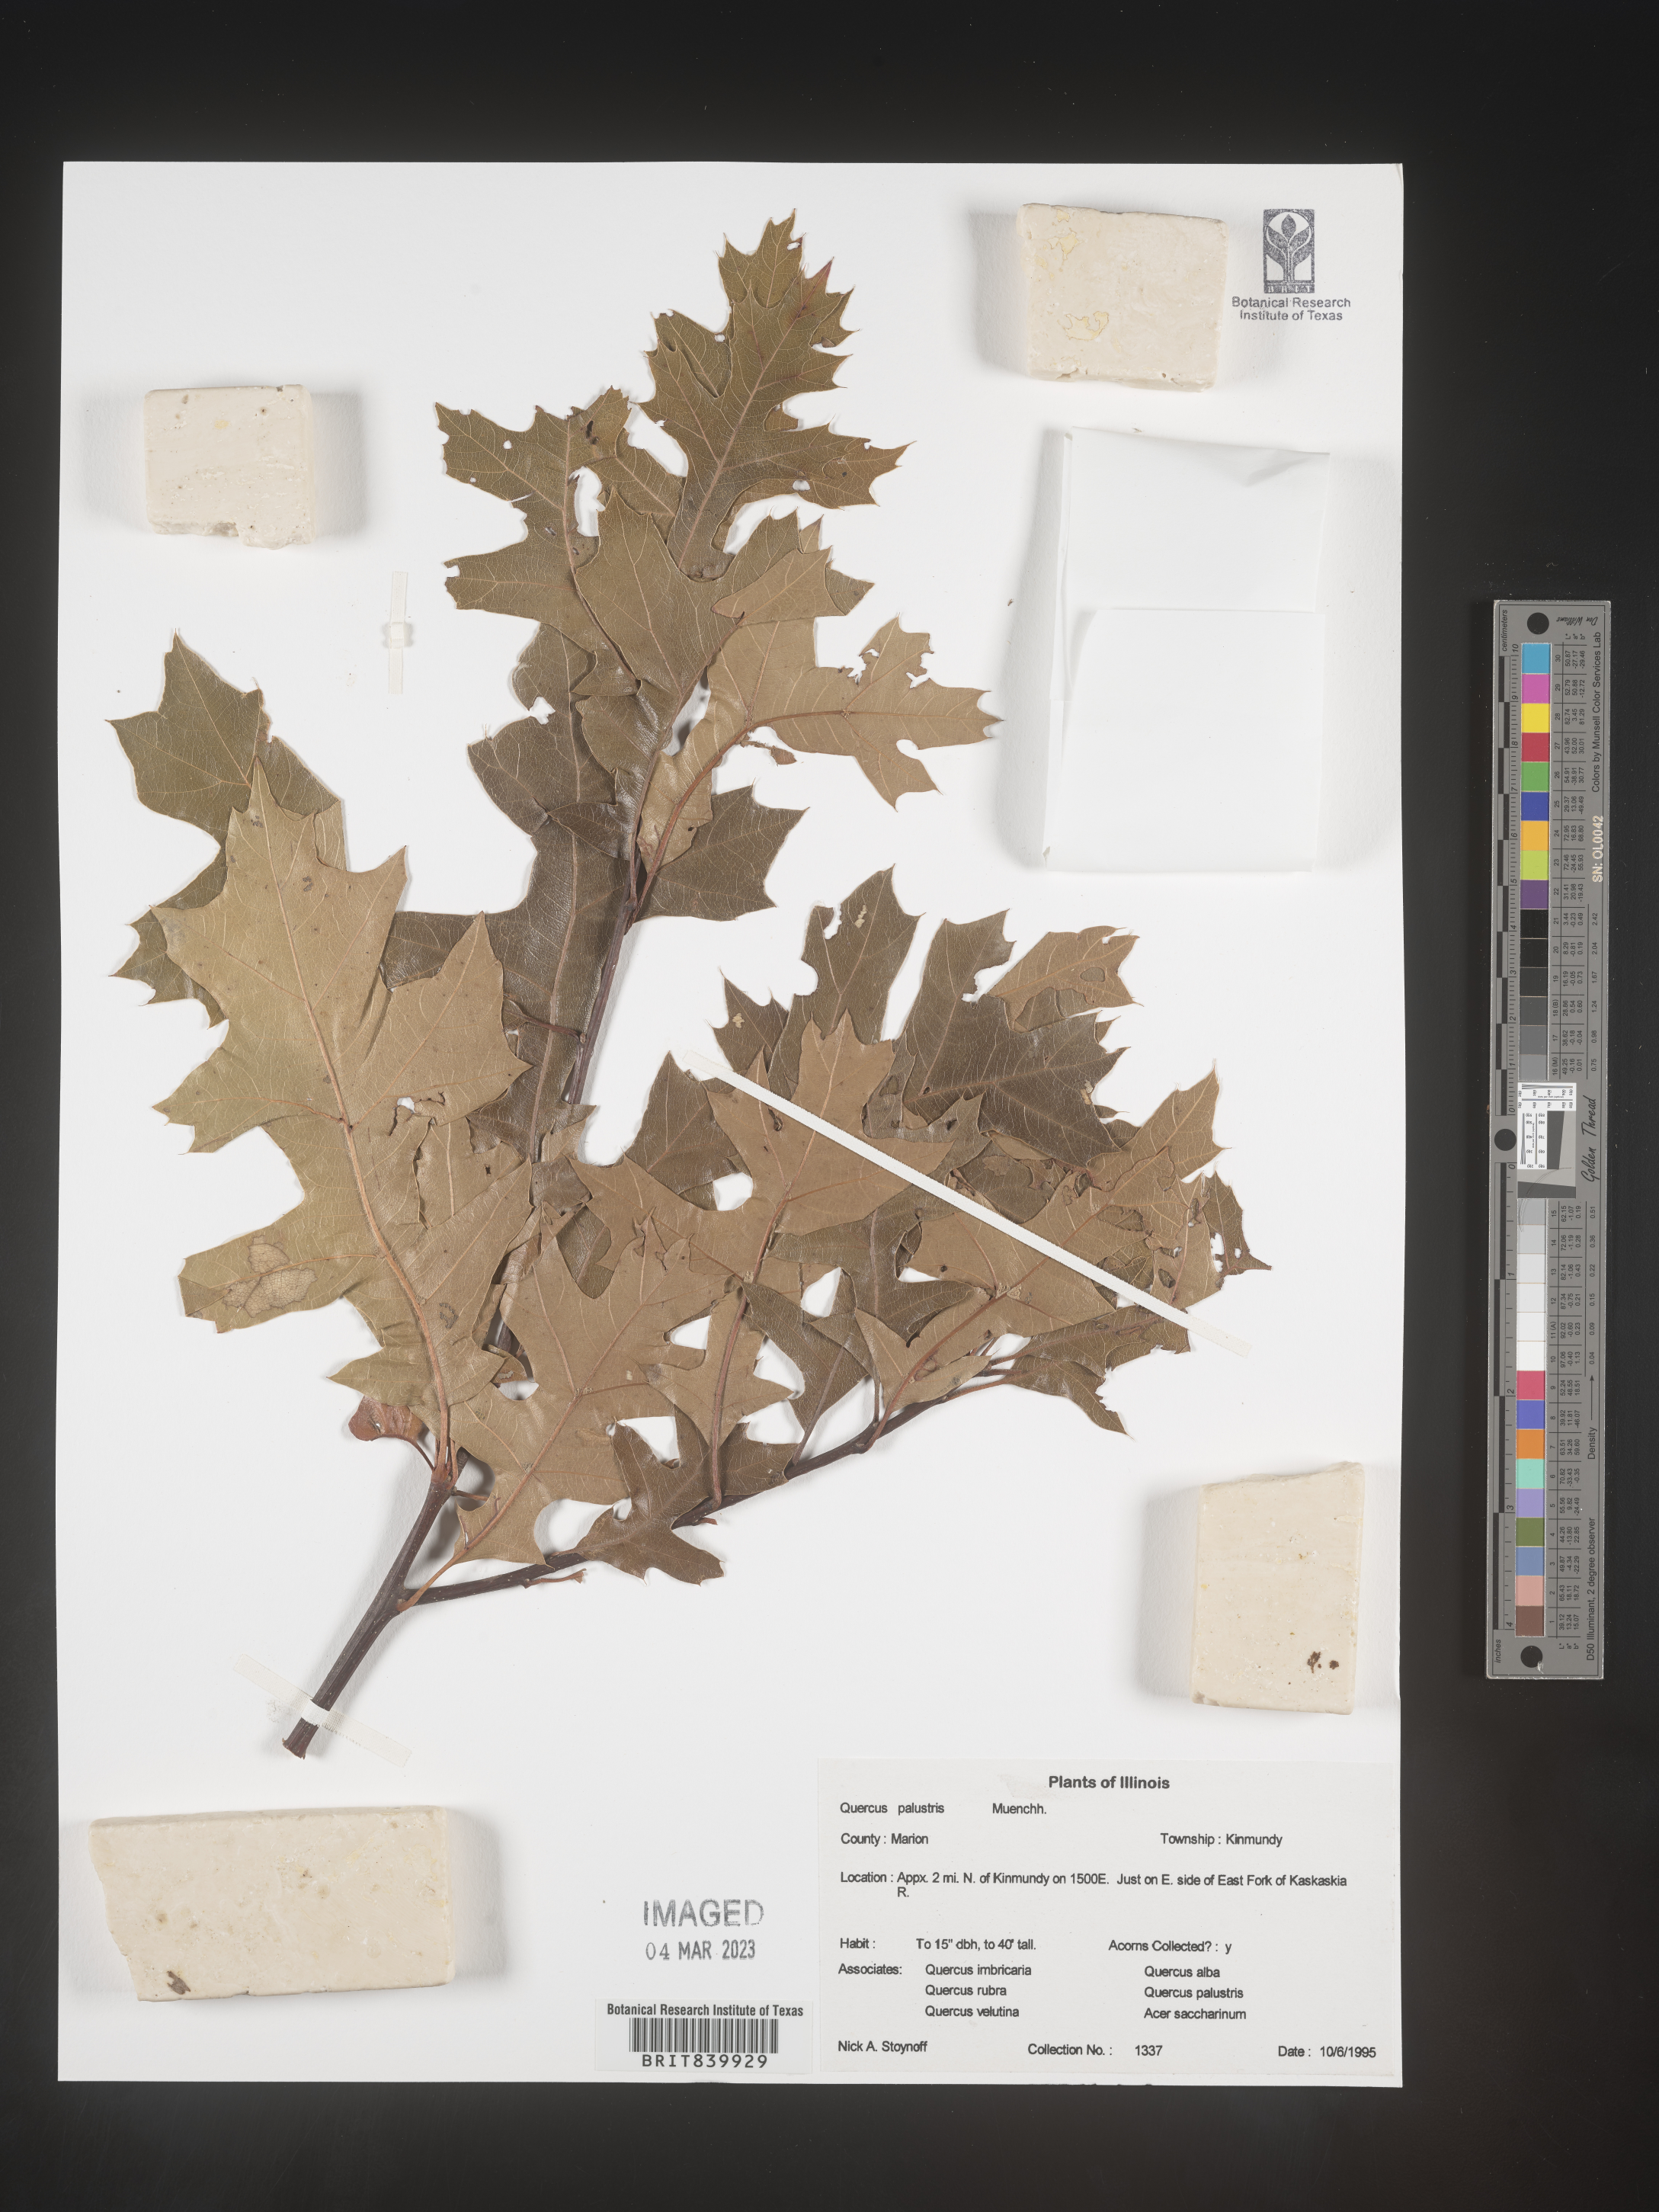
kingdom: Plantae
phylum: Tracheophyta
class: Magnoliopsida
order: Fagales
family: Fagaceae
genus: Quercus
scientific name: Quercus palustris
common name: Pin oak
